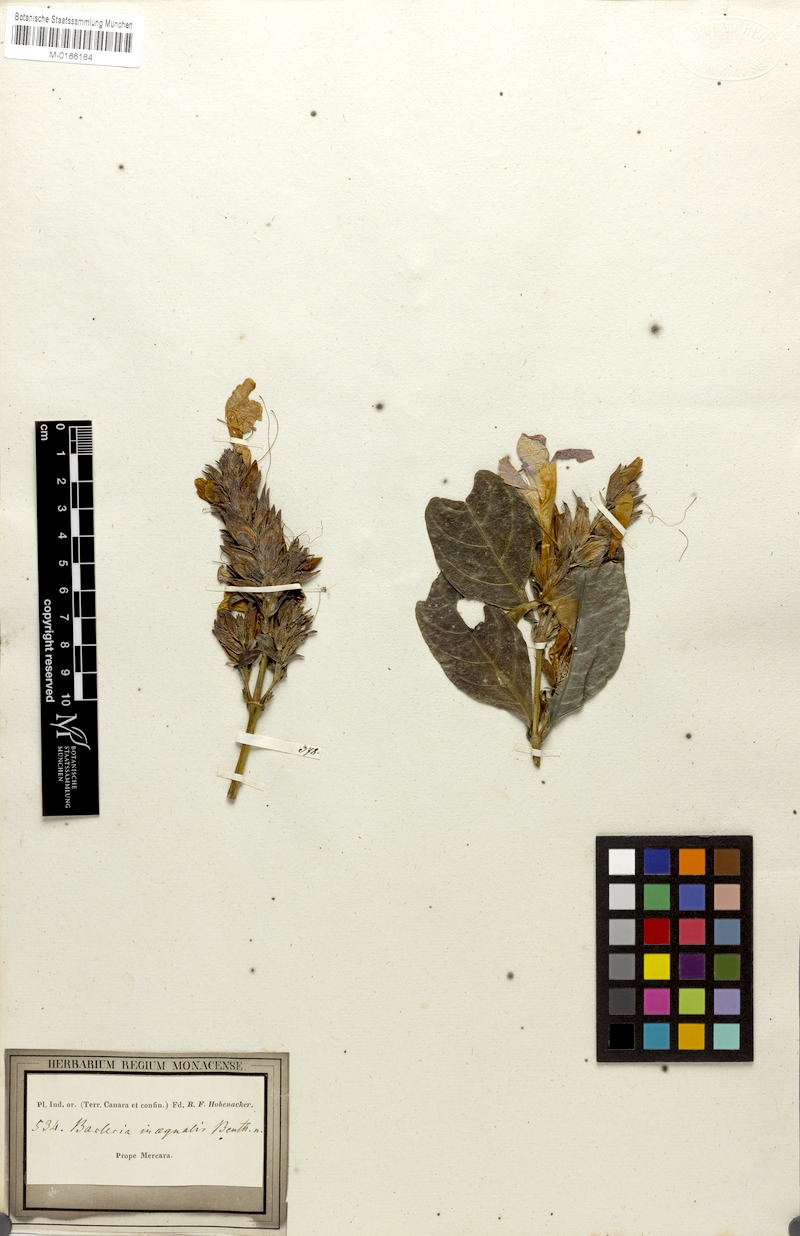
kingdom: Plantae
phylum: Tracheophyta
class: Magnoliopsida
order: Lamiales
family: Acanthaceae
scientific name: Acanthaceae
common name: Acanthaceae
